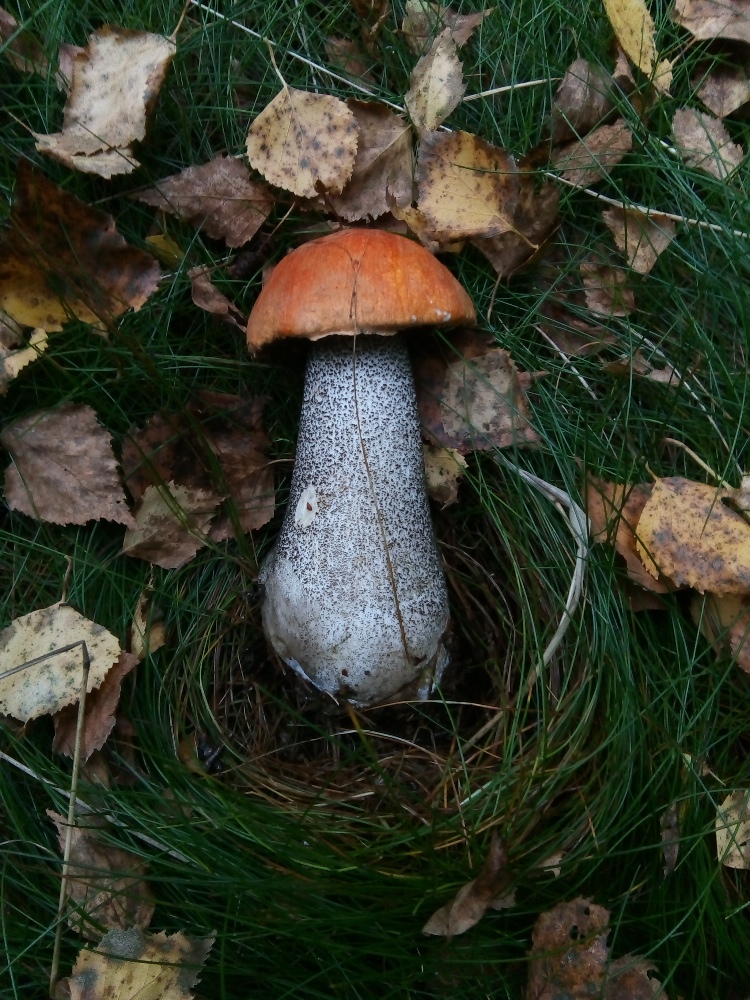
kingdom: Fungi
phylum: Basidiomycota
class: Agaricomycetes
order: Boletales
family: Boletaceae
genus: Leccinum
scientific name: Leccinum versipelle
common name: orange skælrørhat
